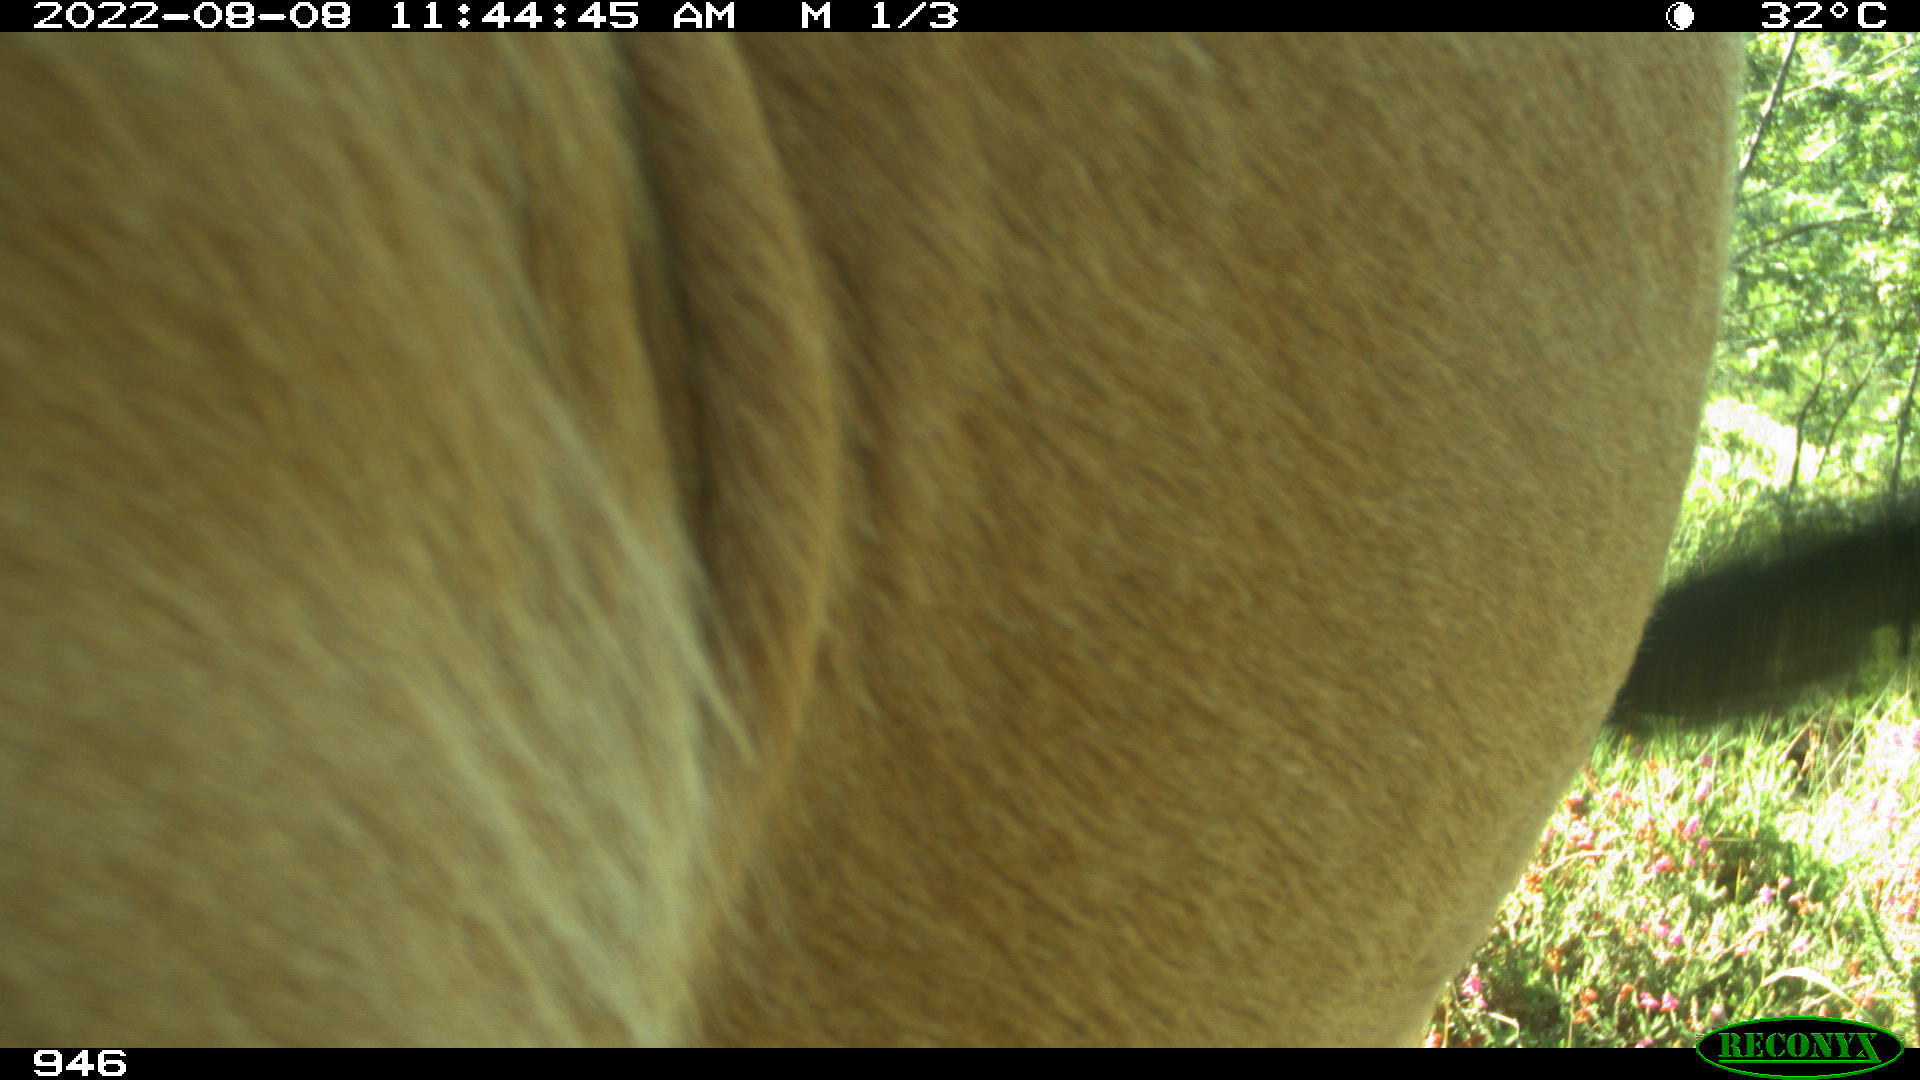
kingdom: Animalia
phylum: Chordata
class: Mammalia
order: Artiodactyla
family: Bovidae
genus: Bos
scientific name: Bos taurus
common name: Domesticated cattle
